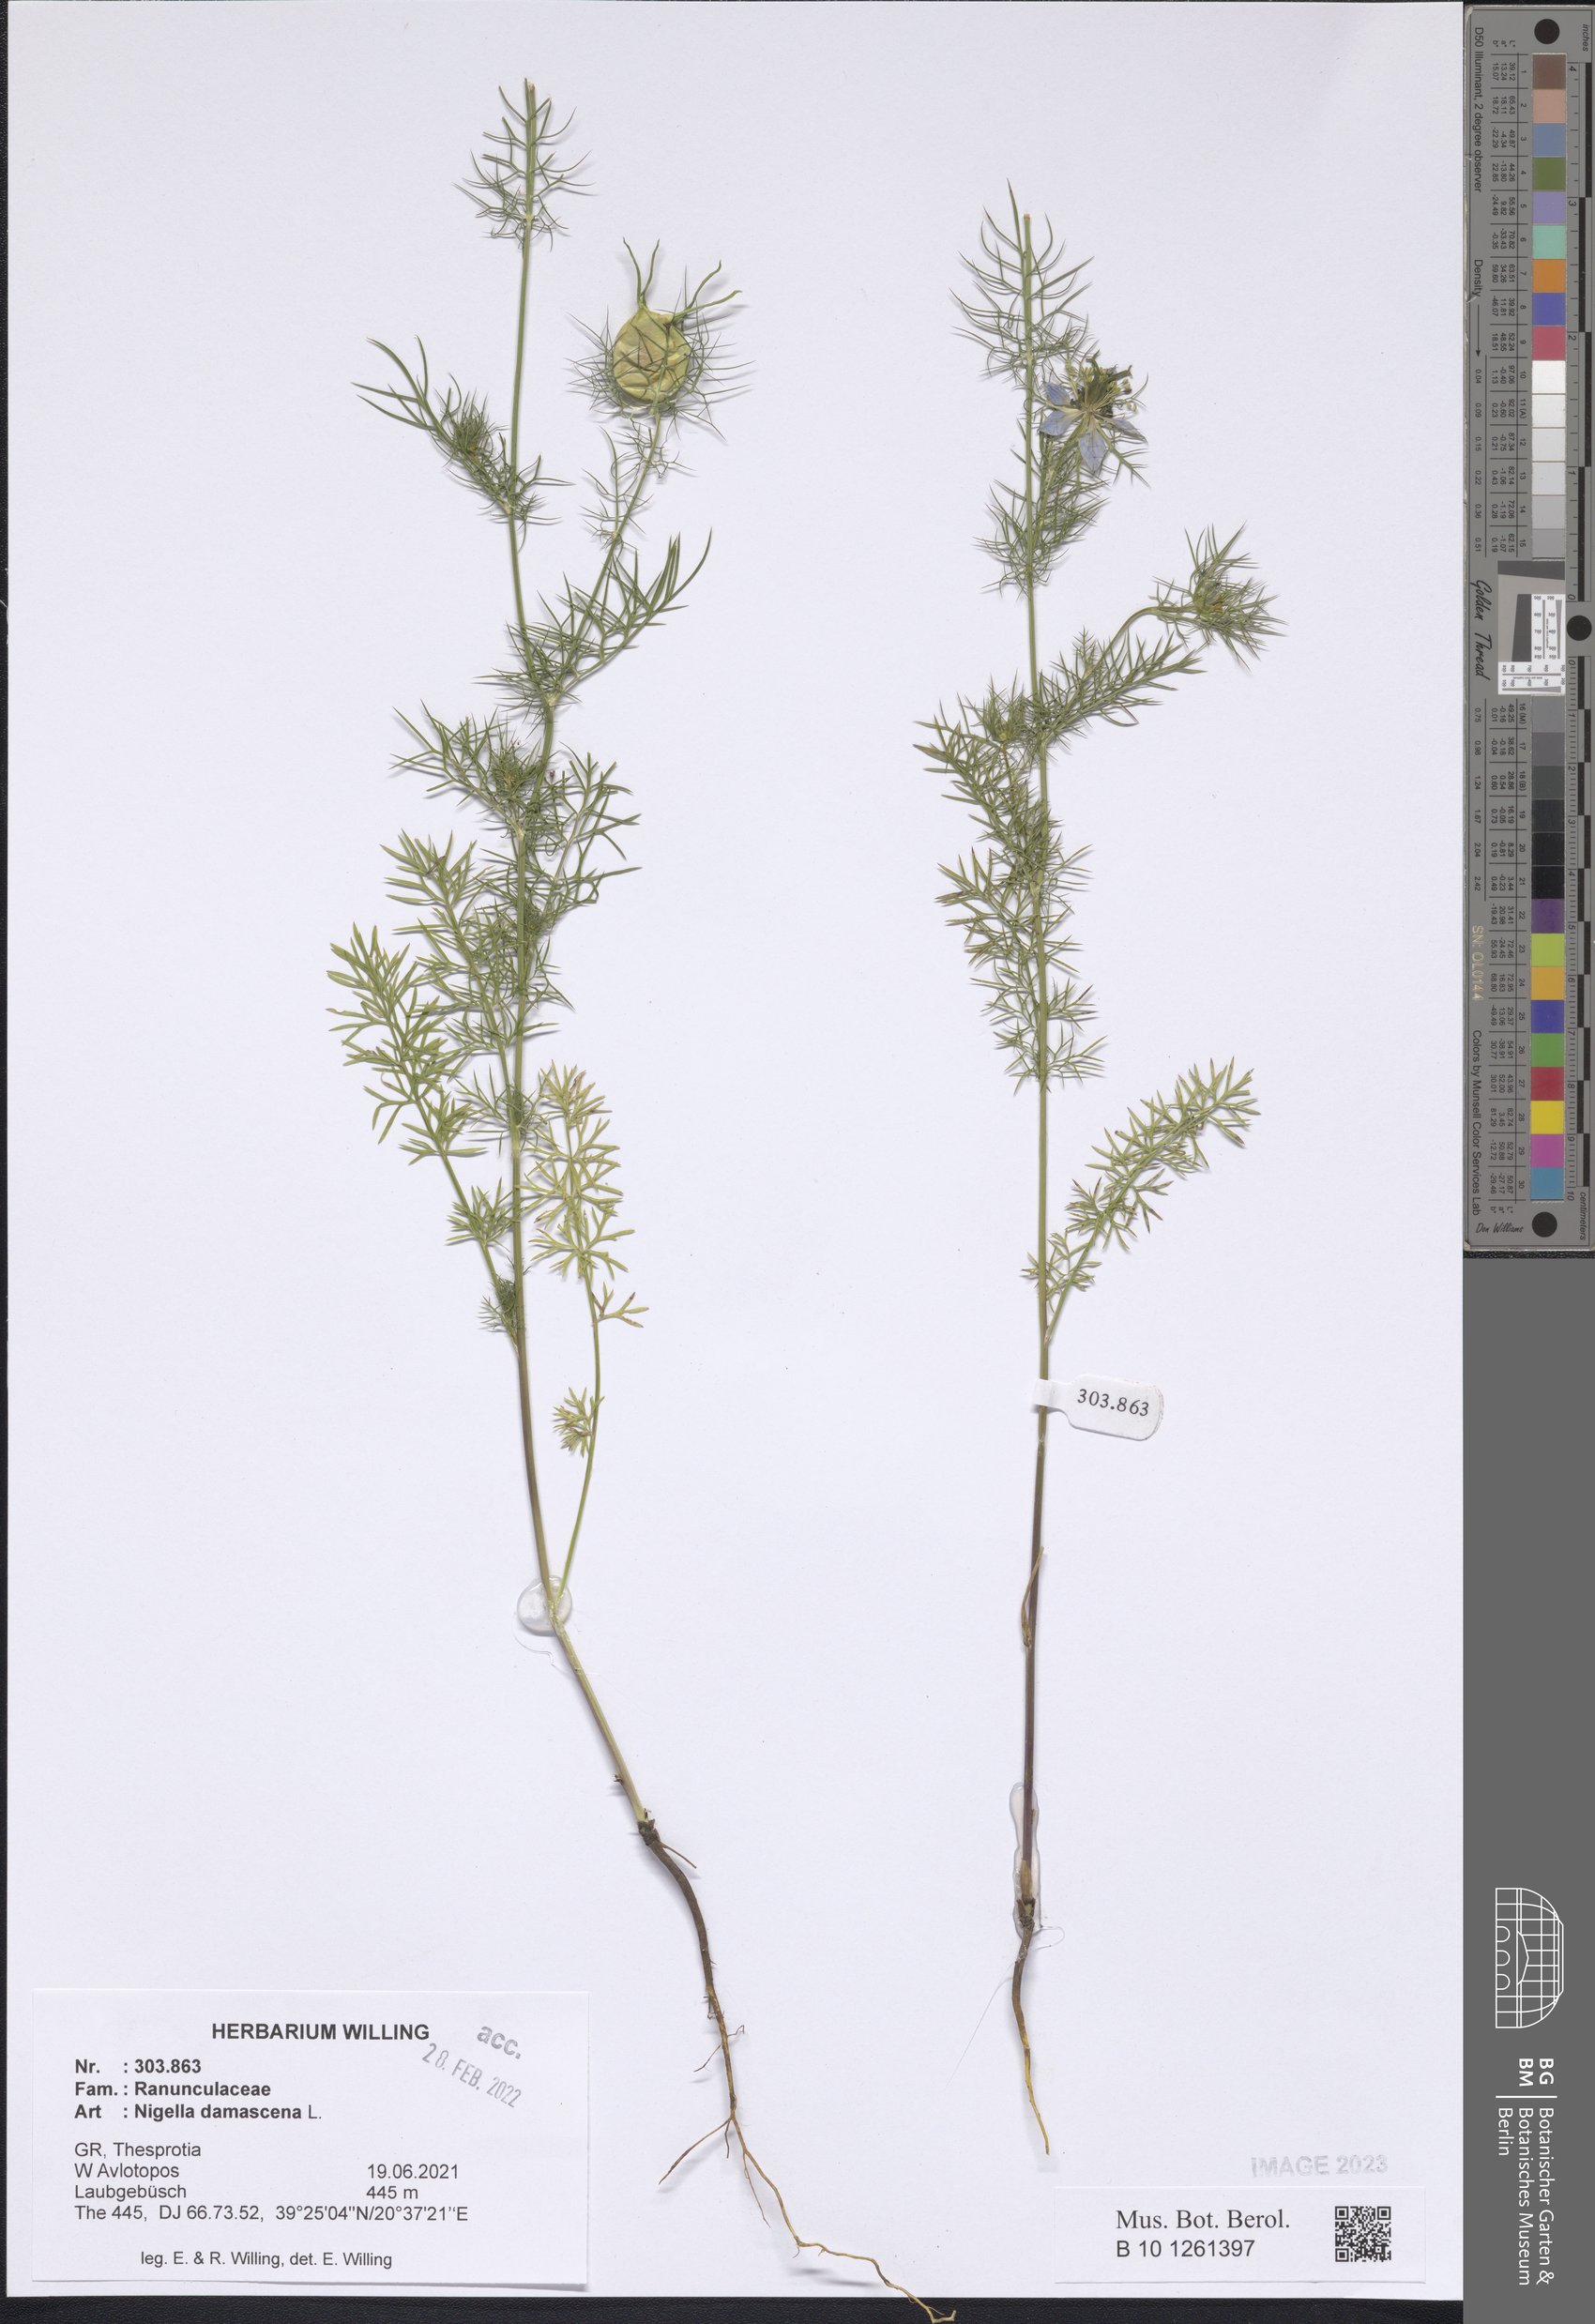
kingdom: Plantae
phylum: Tracheophyta
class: Magnoliopsida
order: Ranunculales
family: Ranunculaceae
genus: Nigella
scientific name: Nigella damascena
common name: Love-in-a-mist
